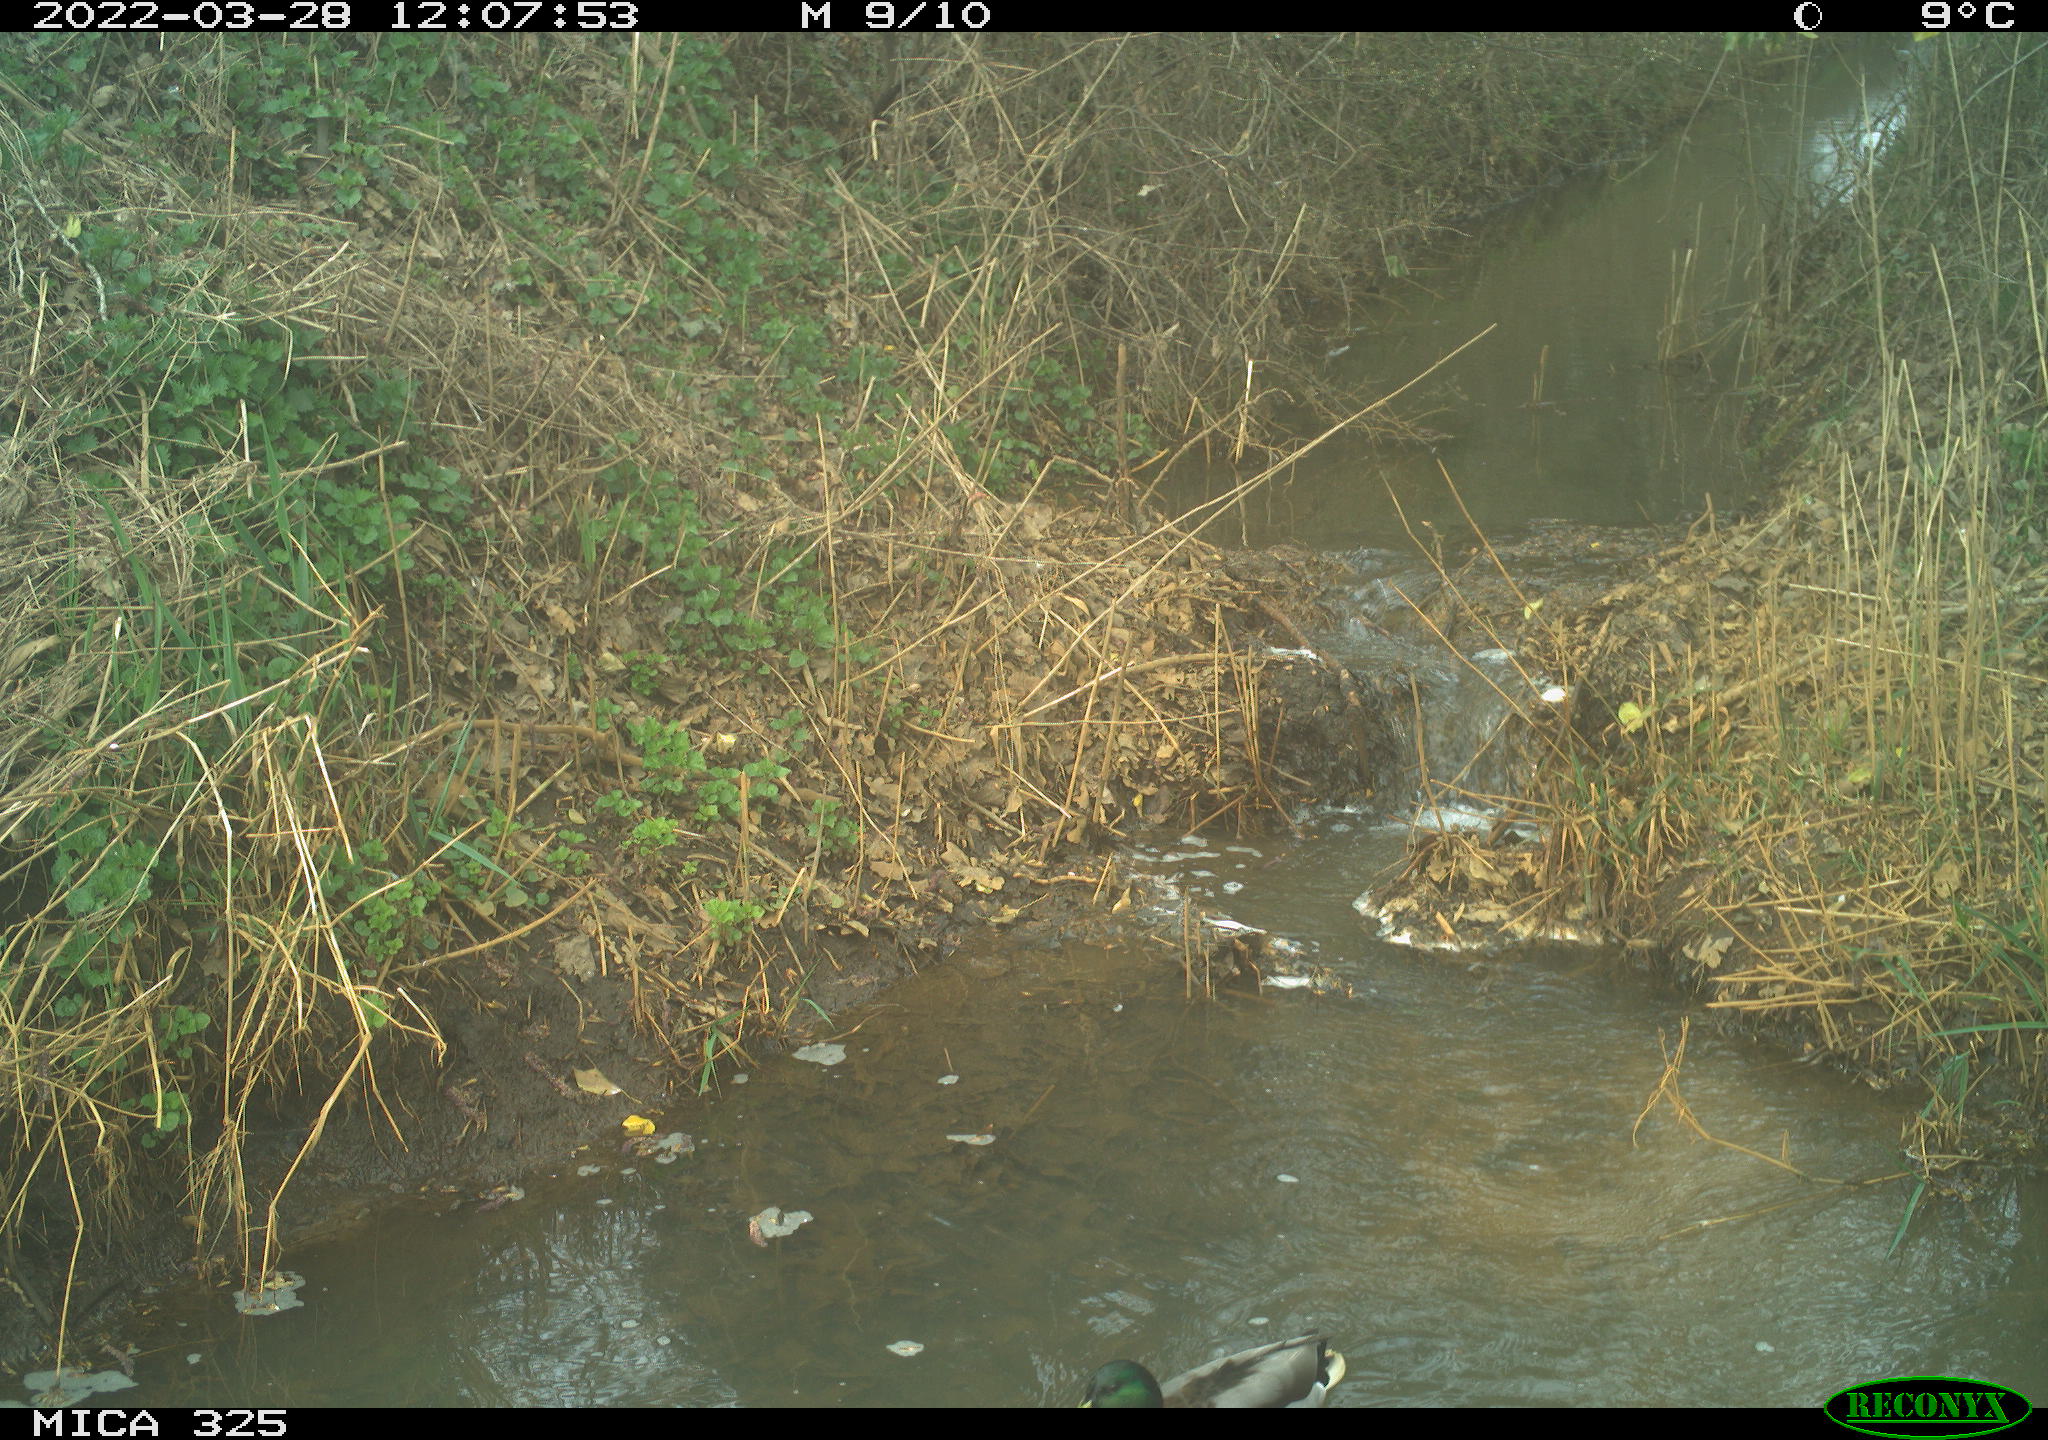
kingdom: Animalia
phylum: Chordata
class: Aves
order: Anseriformes
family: Anatidae
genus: Anas
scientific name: Anas platyrhynchos
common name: Mallard
